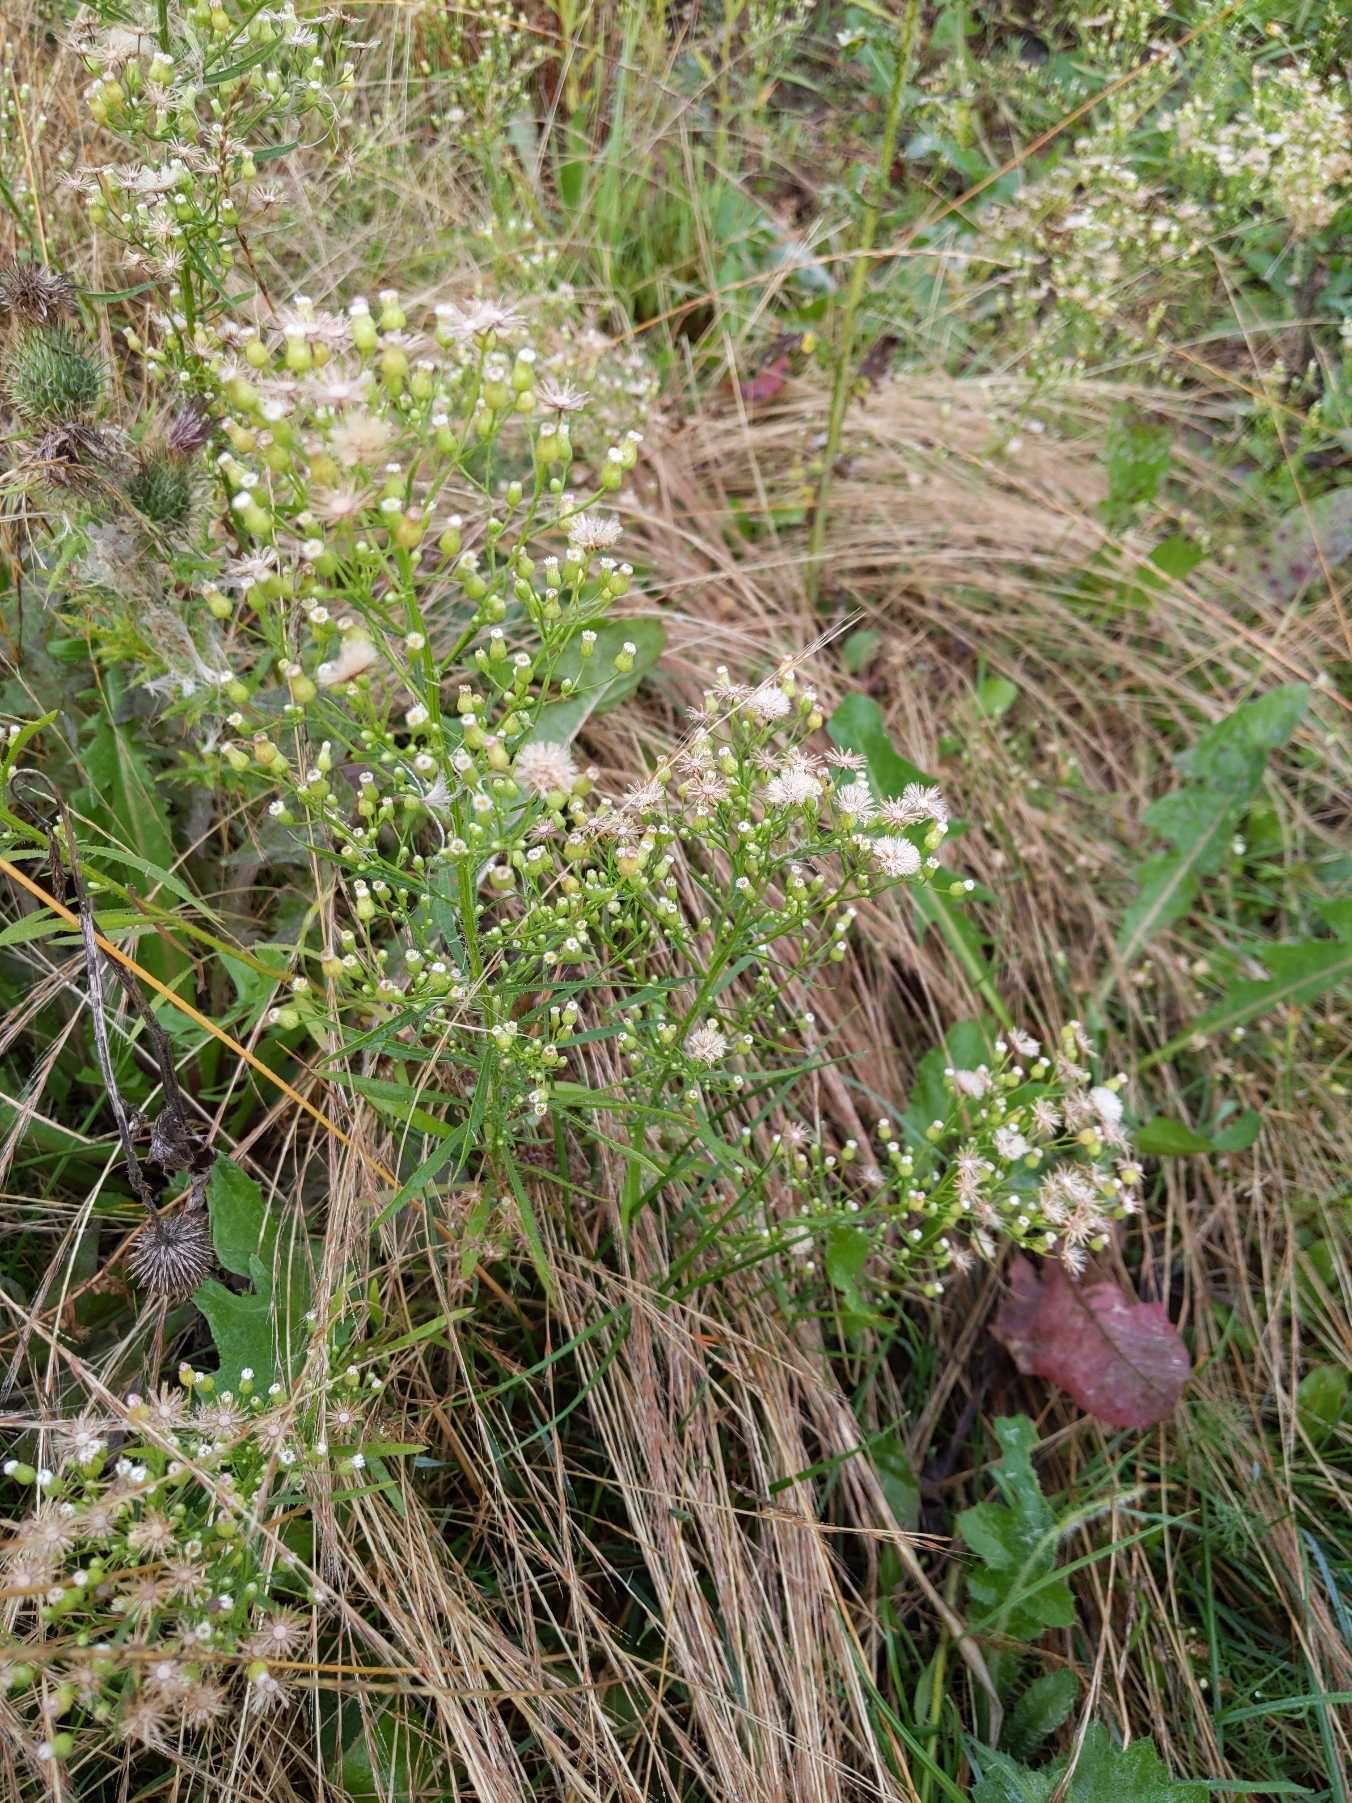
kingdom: Plantae
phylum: Tracheophyta
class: Magnoliopsida
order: Asterales
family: Asteraceae
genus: Erigeron
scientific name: Erigeron canadensis
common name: Kanadisk bakkestjerne
